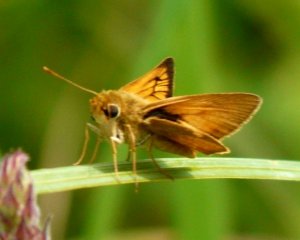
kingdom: Animalia
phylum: Arthropoda
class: Insecta
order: Lepidoptera
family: Hesperiidae
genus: Atrytone
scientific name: Atrytone delaware
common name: Delaware Skipper
